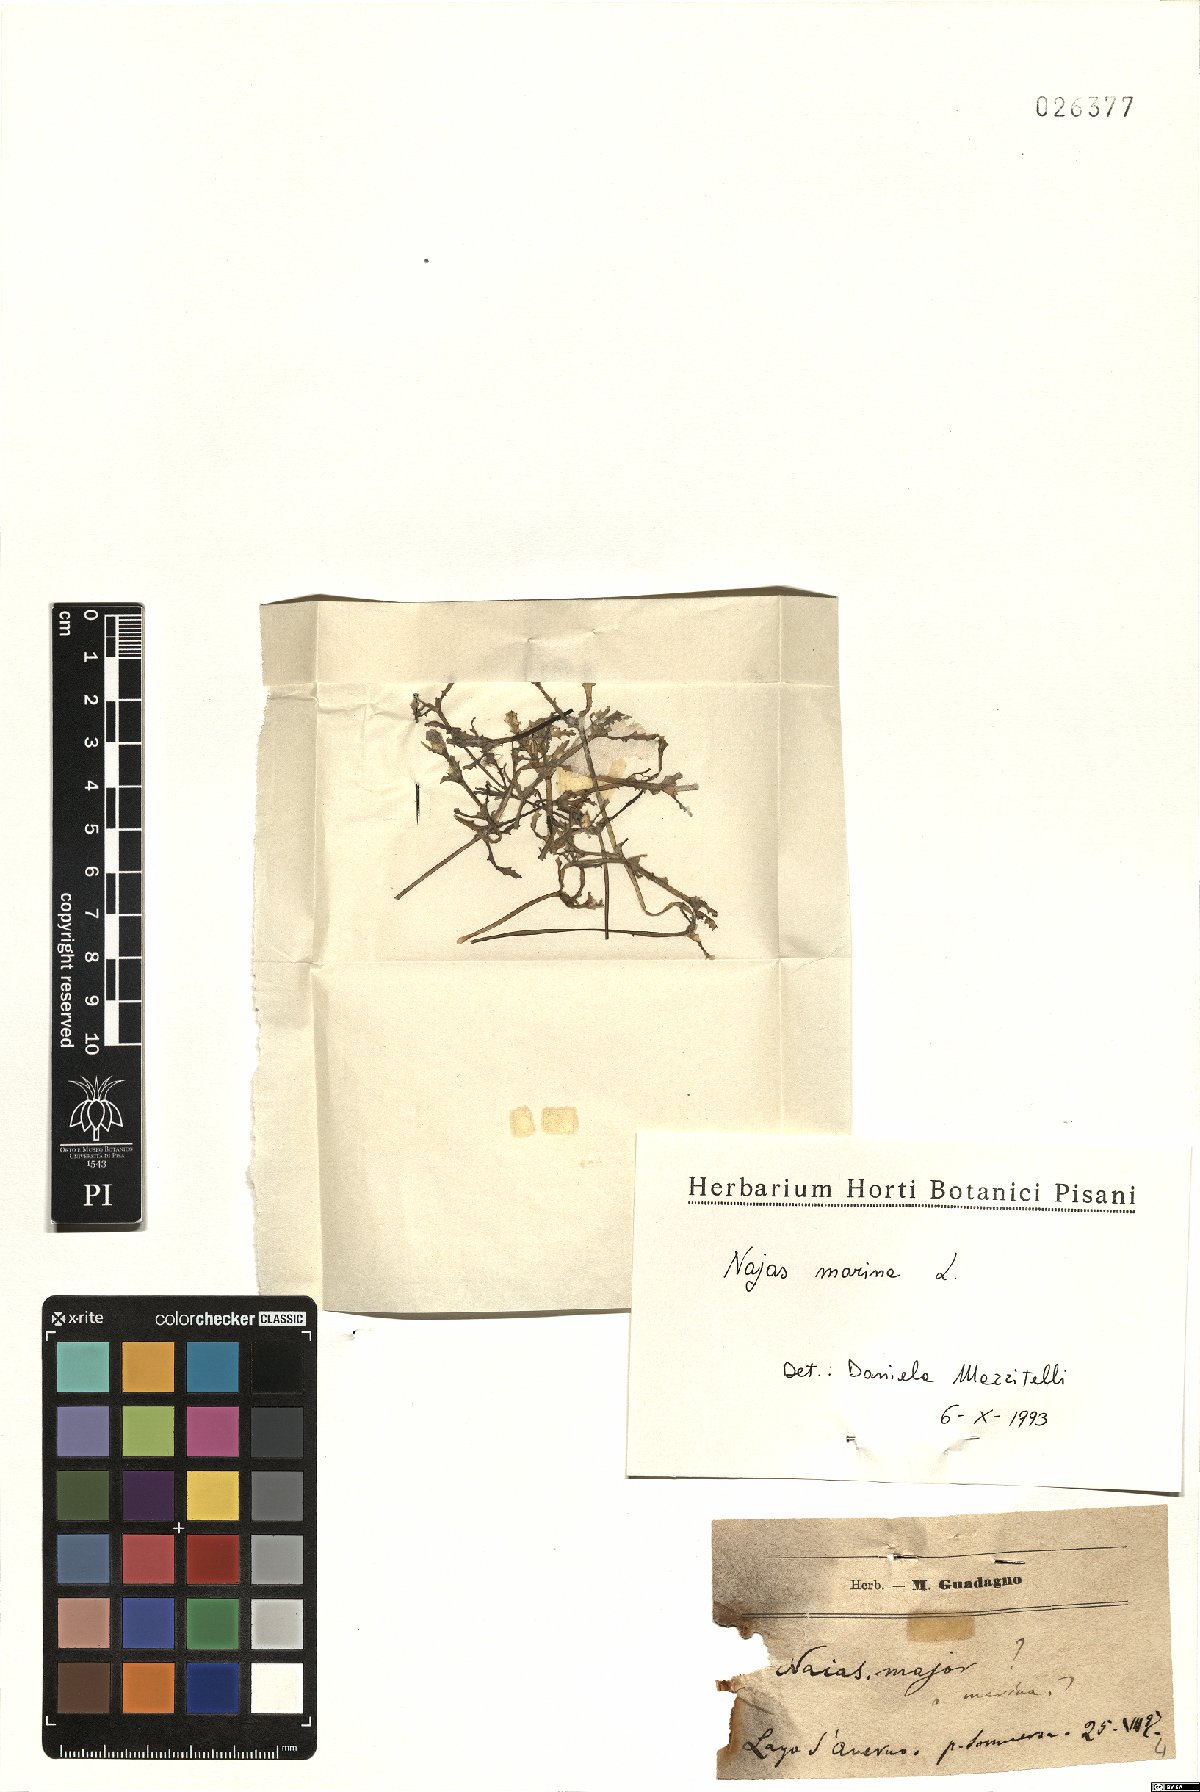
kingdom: Plantae
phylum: Tracheophyta
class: Liliopsida
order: Alismatales
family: Hydrocharitaceae
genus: Najas
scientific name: Najas marina
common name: Holly-leaved naiad
